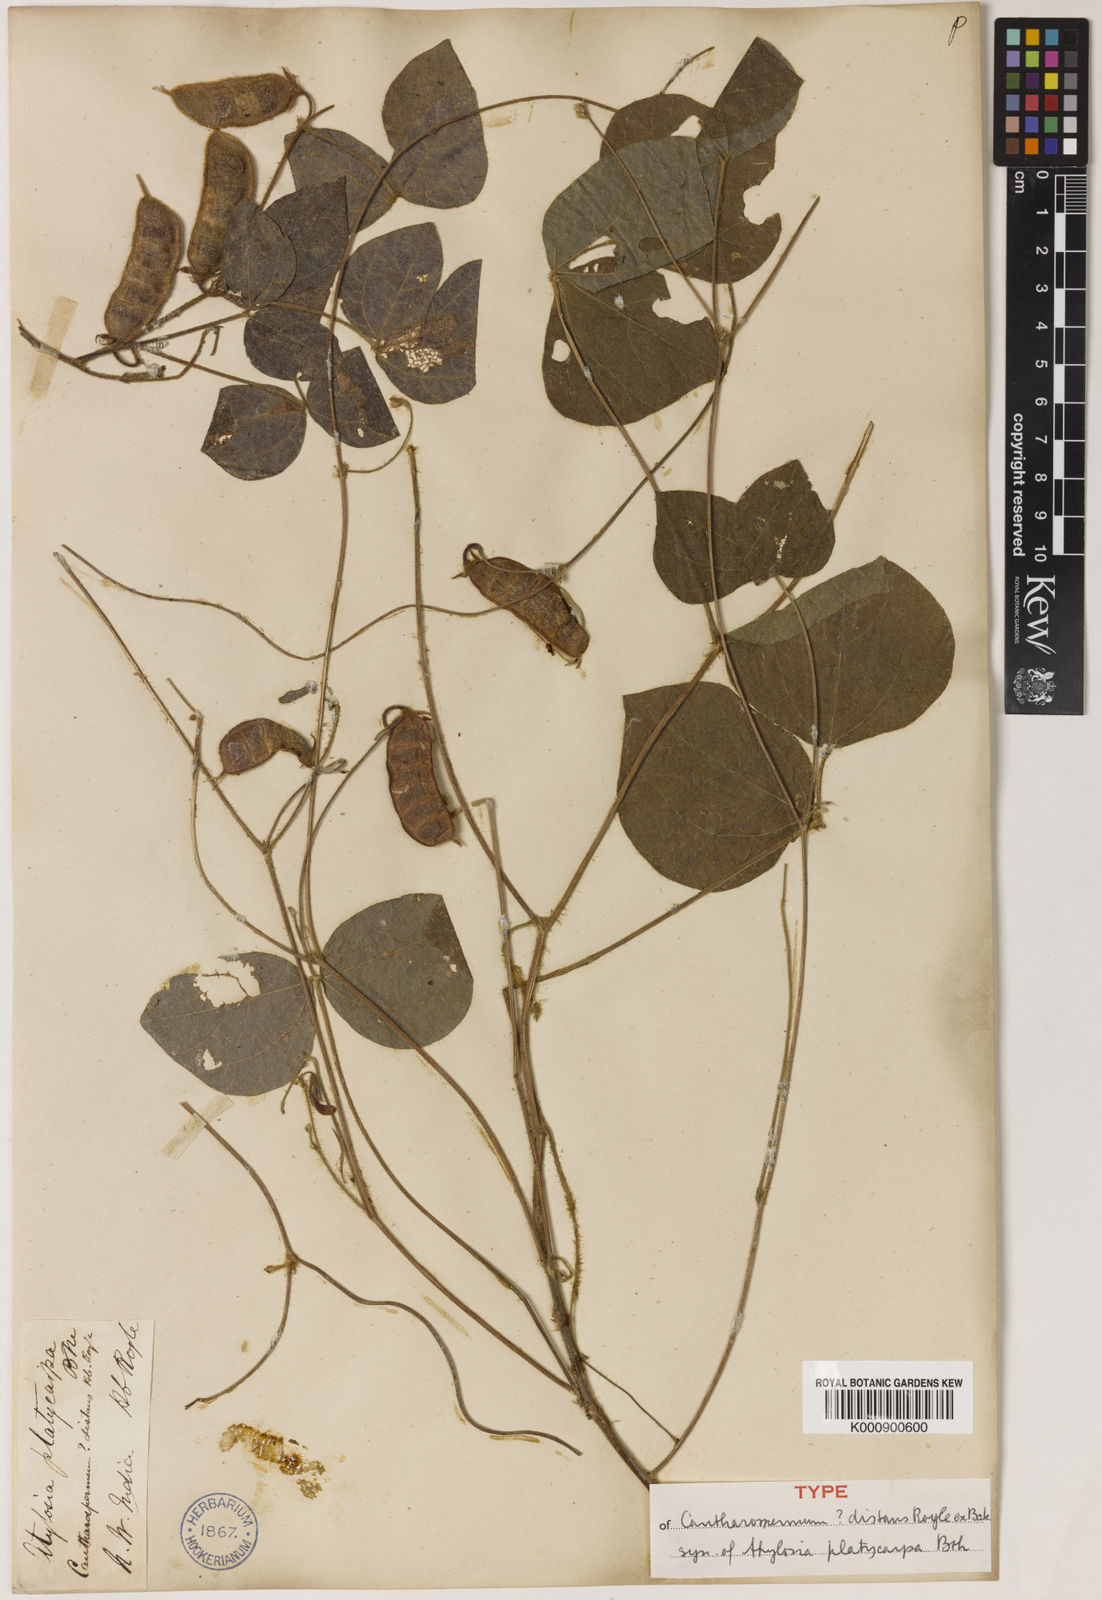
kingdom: Plantae
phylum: Tracheophyta
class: Magnoliopsida
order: Fabales
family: Fabaceae
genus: Cajanus
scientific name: Cajanus platycarpus
